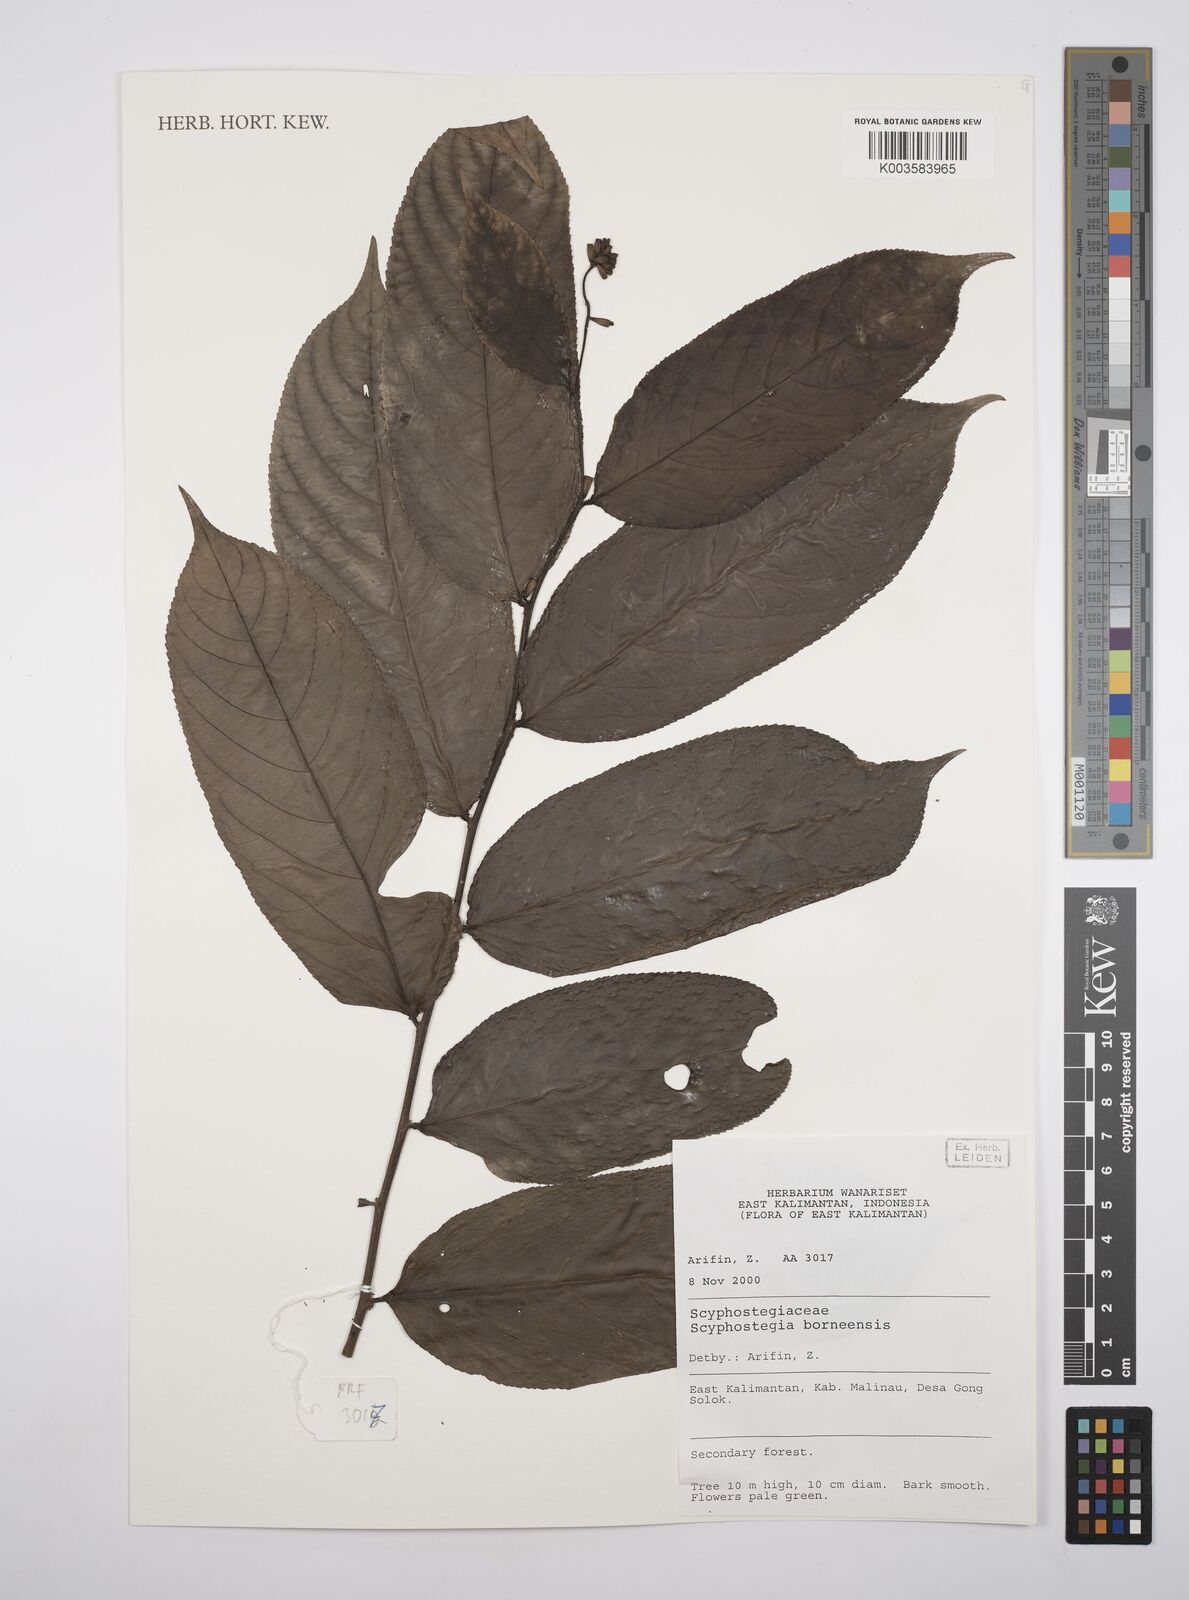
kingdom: Plantae
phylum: Tracheophyta
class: Magnoliopsida
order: Malpighiales
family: Salicaceae
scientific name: Salicaceae
